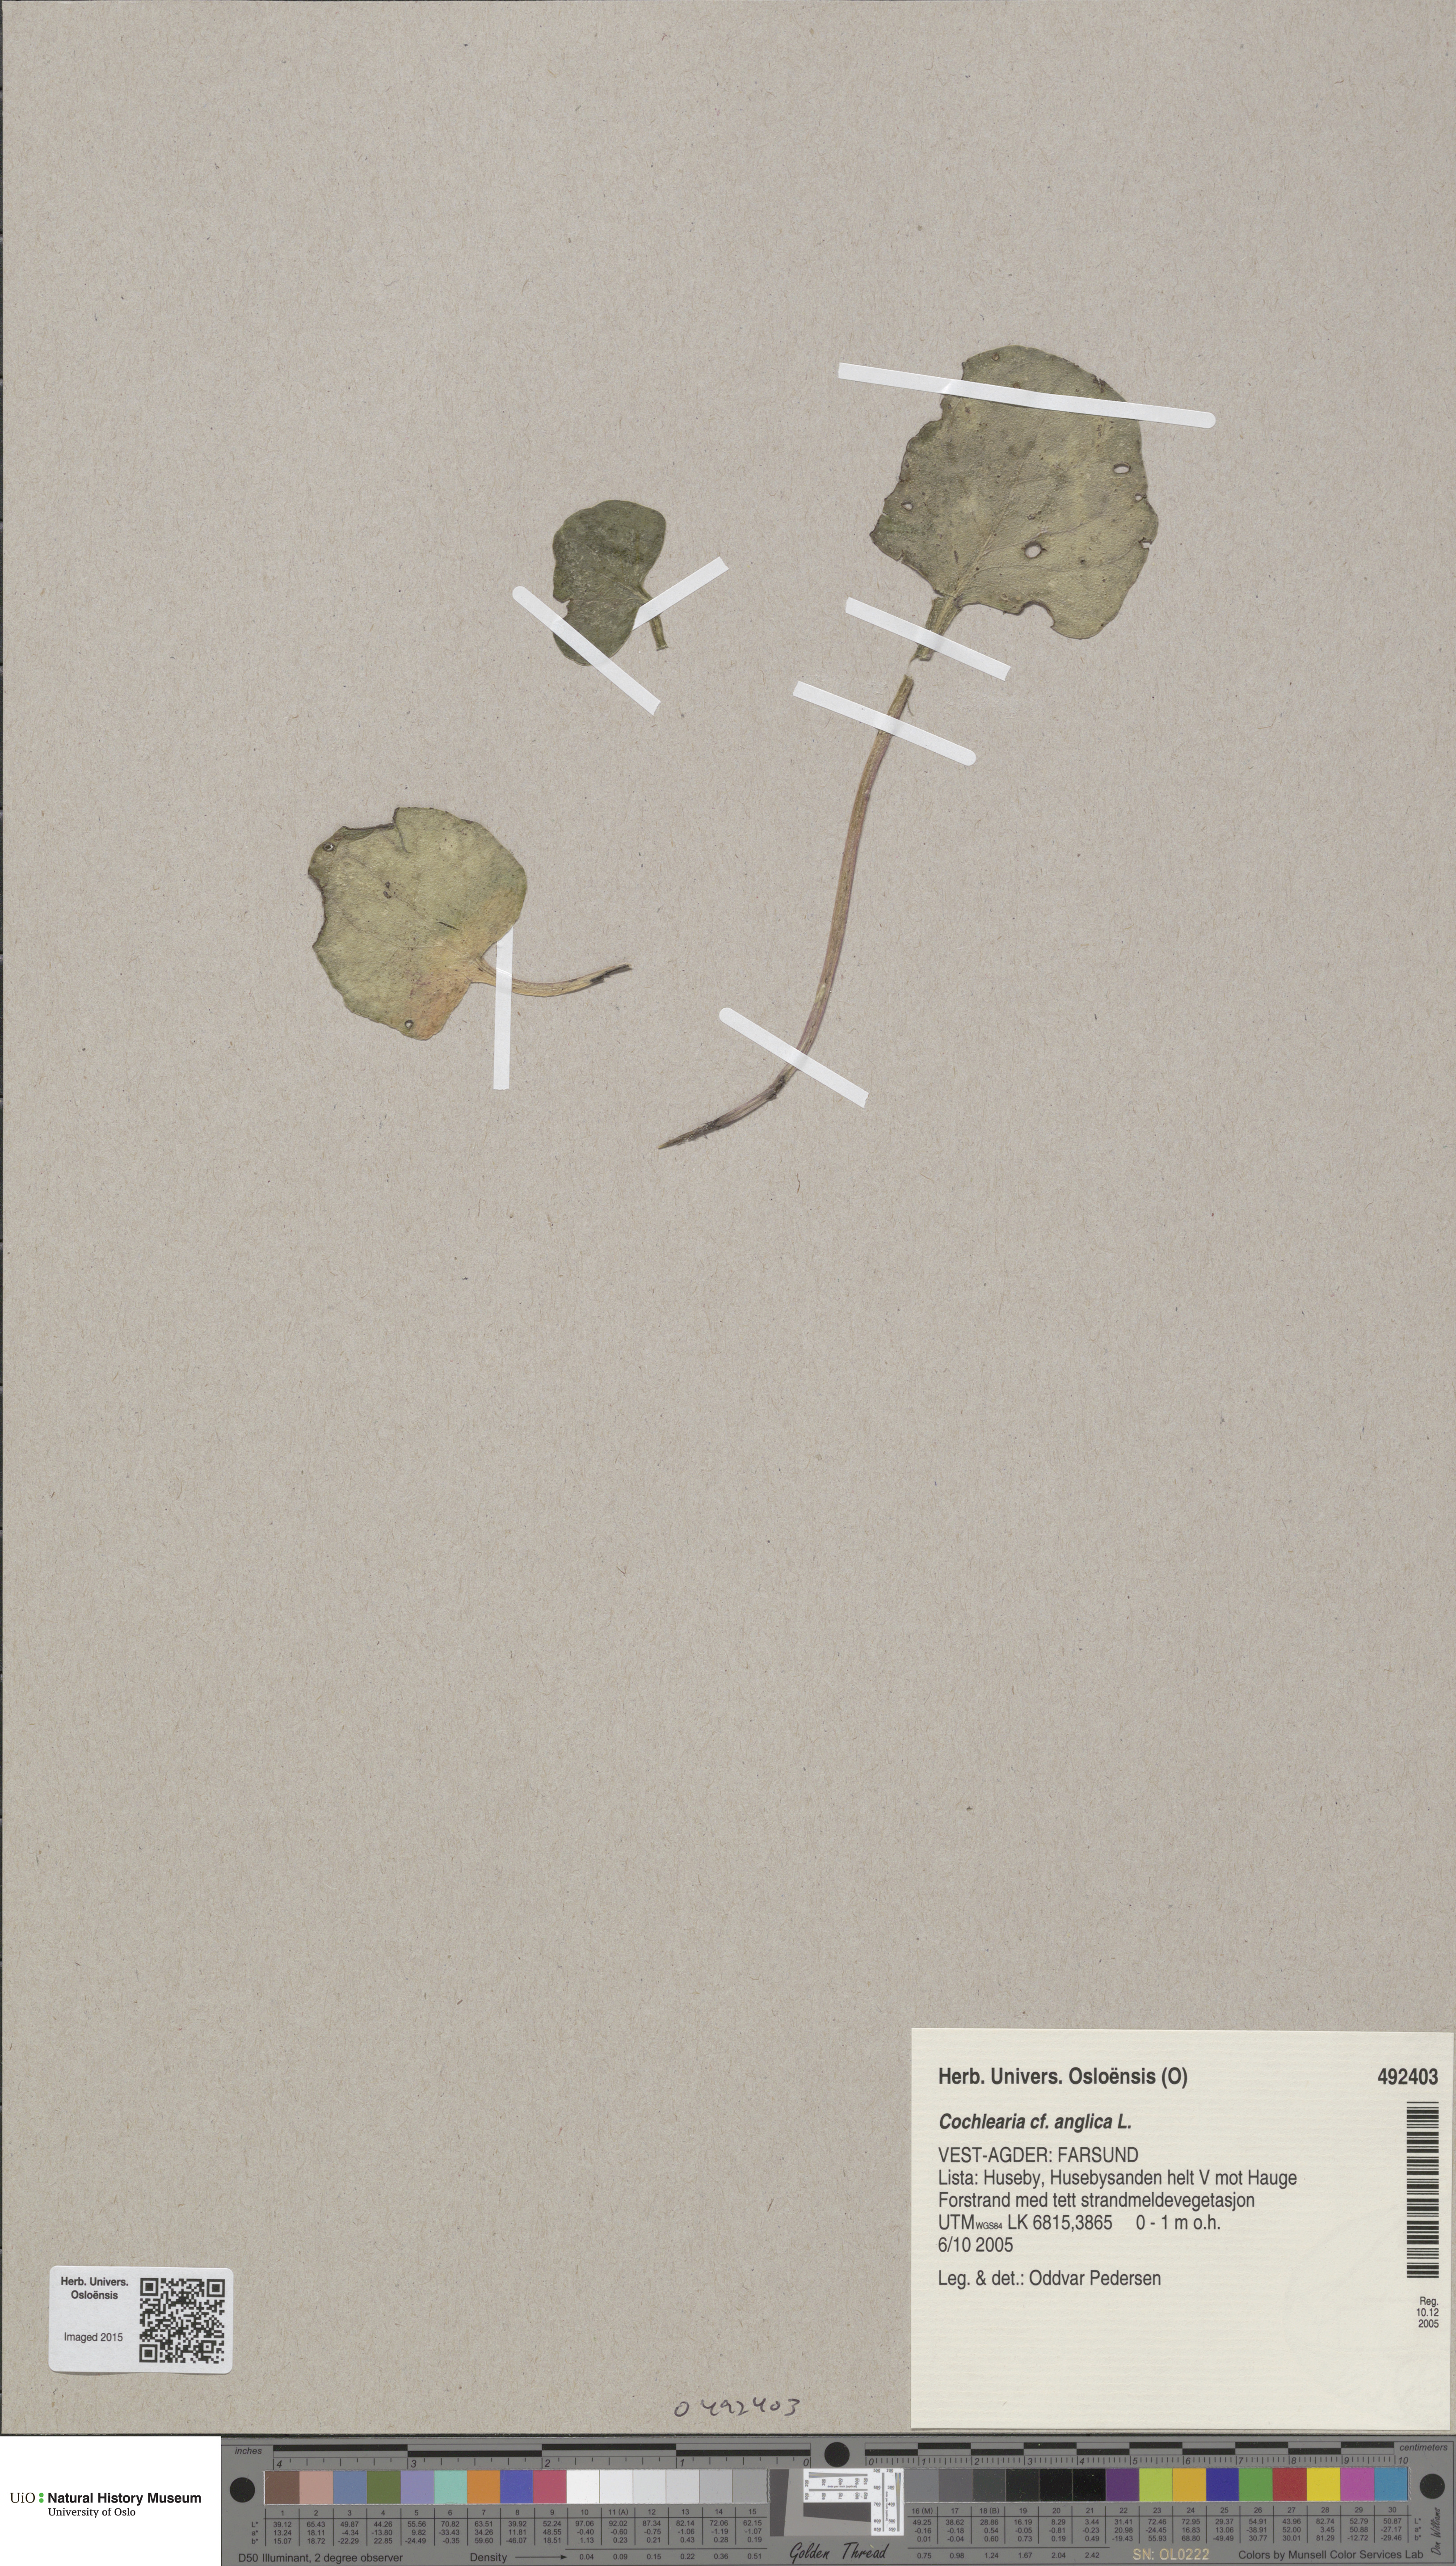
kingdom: Plantae
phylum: Tracheophyta
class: Magnoliopsida
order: Brassicales
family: Brassicaceae
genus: Cochlearia
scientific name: Cochlearia anglica
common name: English scurvygrass
